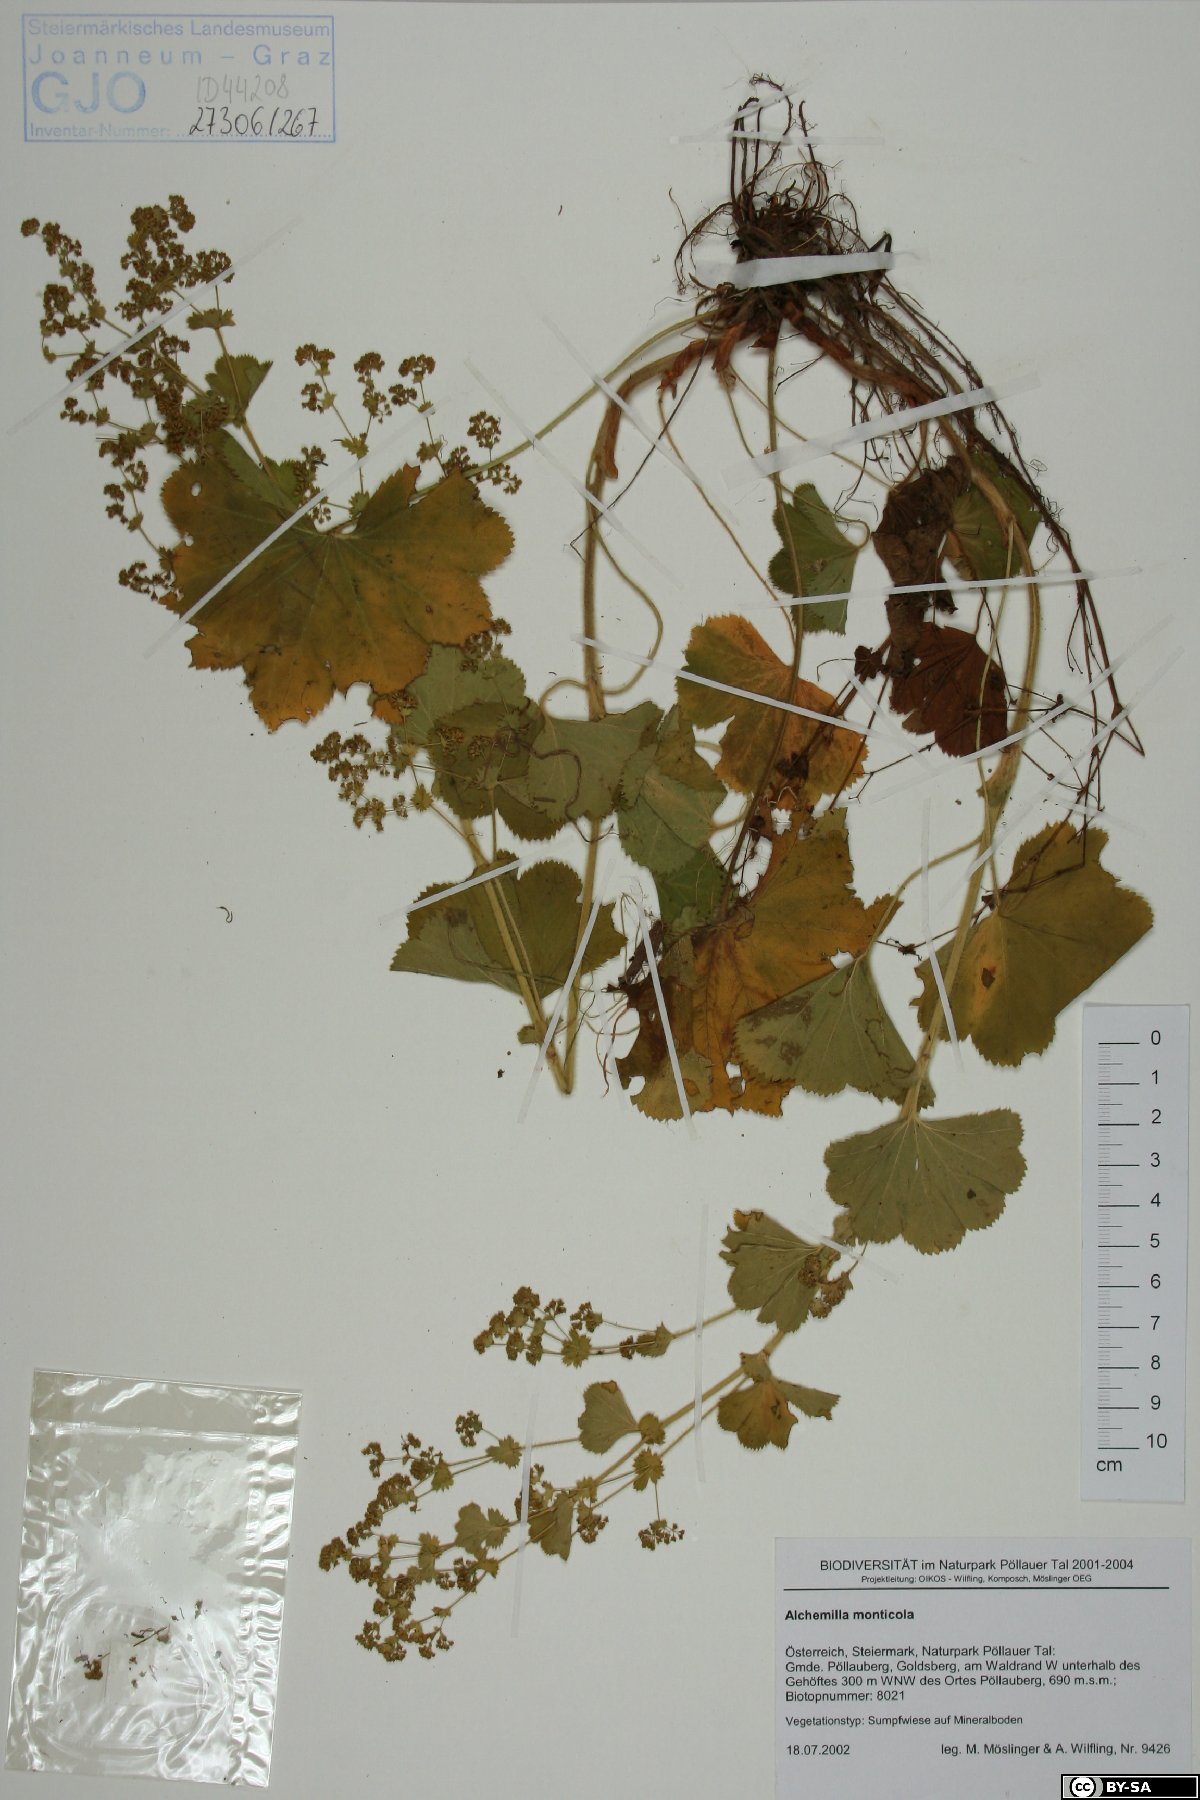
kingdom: Plantae
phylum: Tracheophyta
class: Magnoliopsida
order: Rosales
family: Rosaceae
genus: Alchemilla
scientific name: Alchemilla monticola
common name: Hairy lady's mantle
